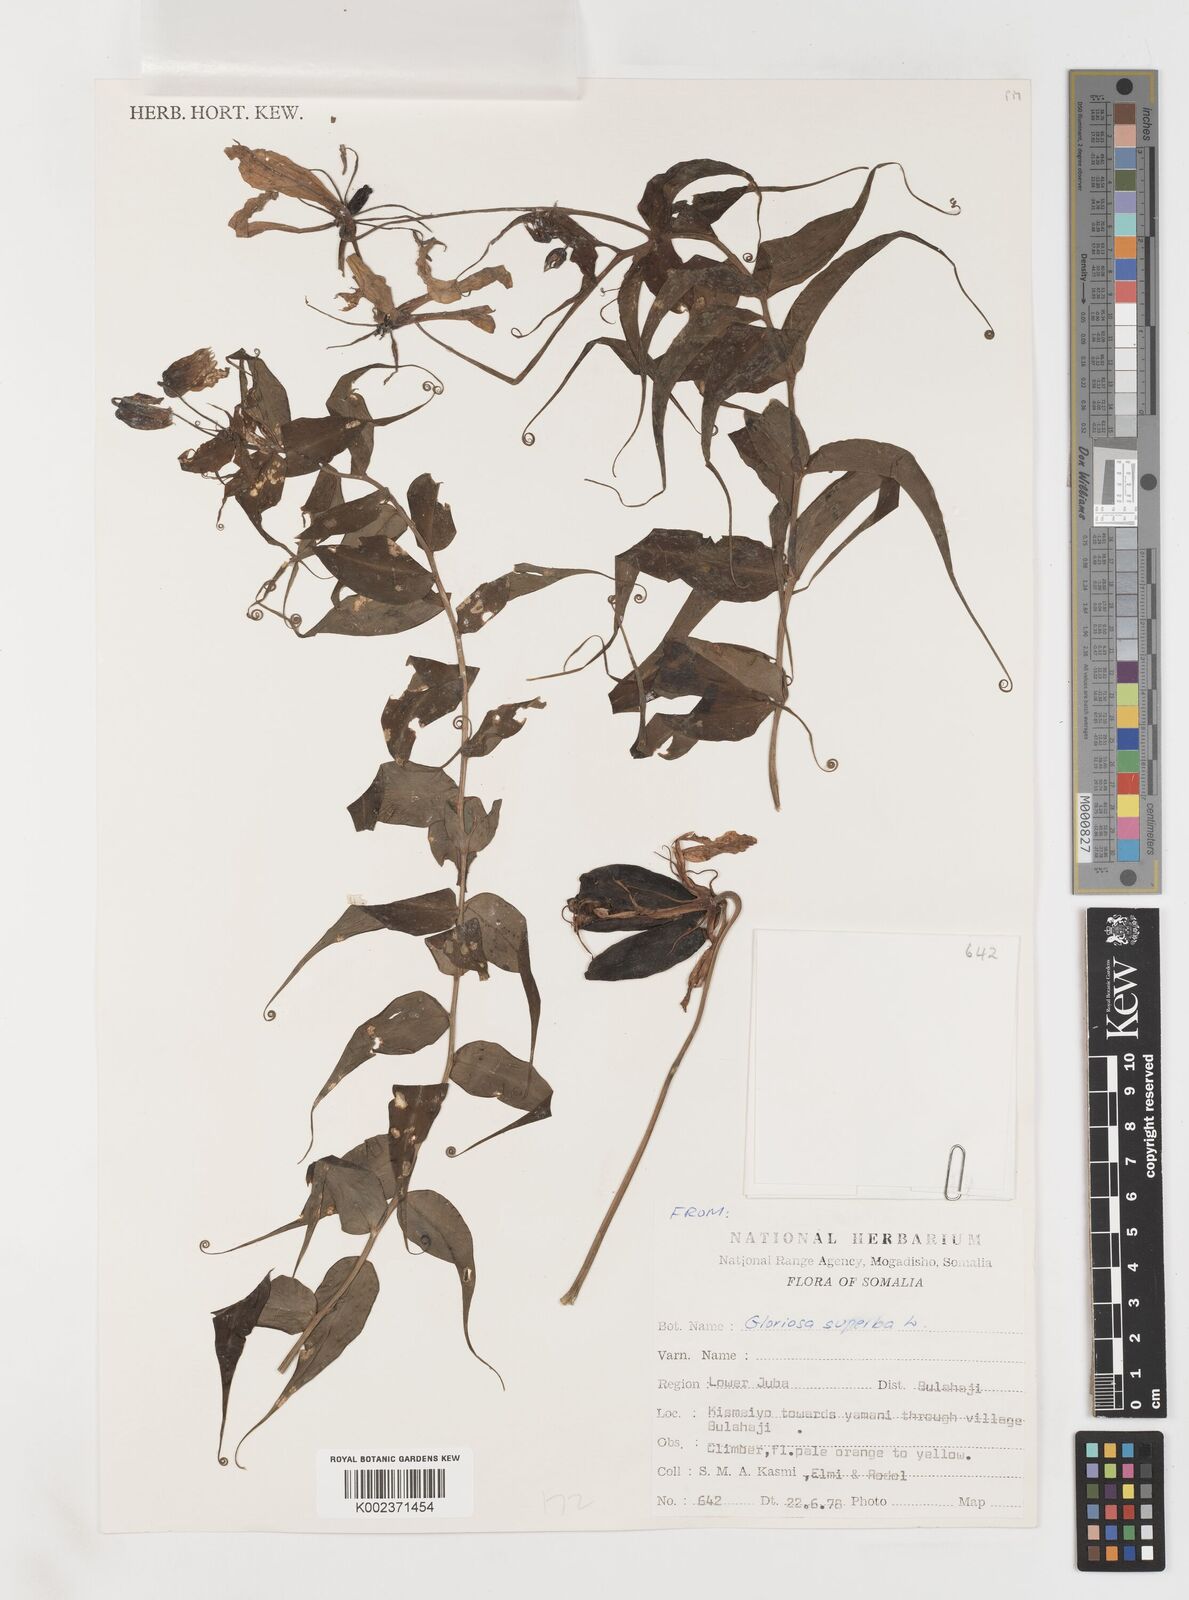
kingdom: Plantae
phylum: Tracheophyta
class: Liliopsida
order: Liliales
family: Colchicaceae
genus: Gloriosa
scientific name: Gloriosa simplex
